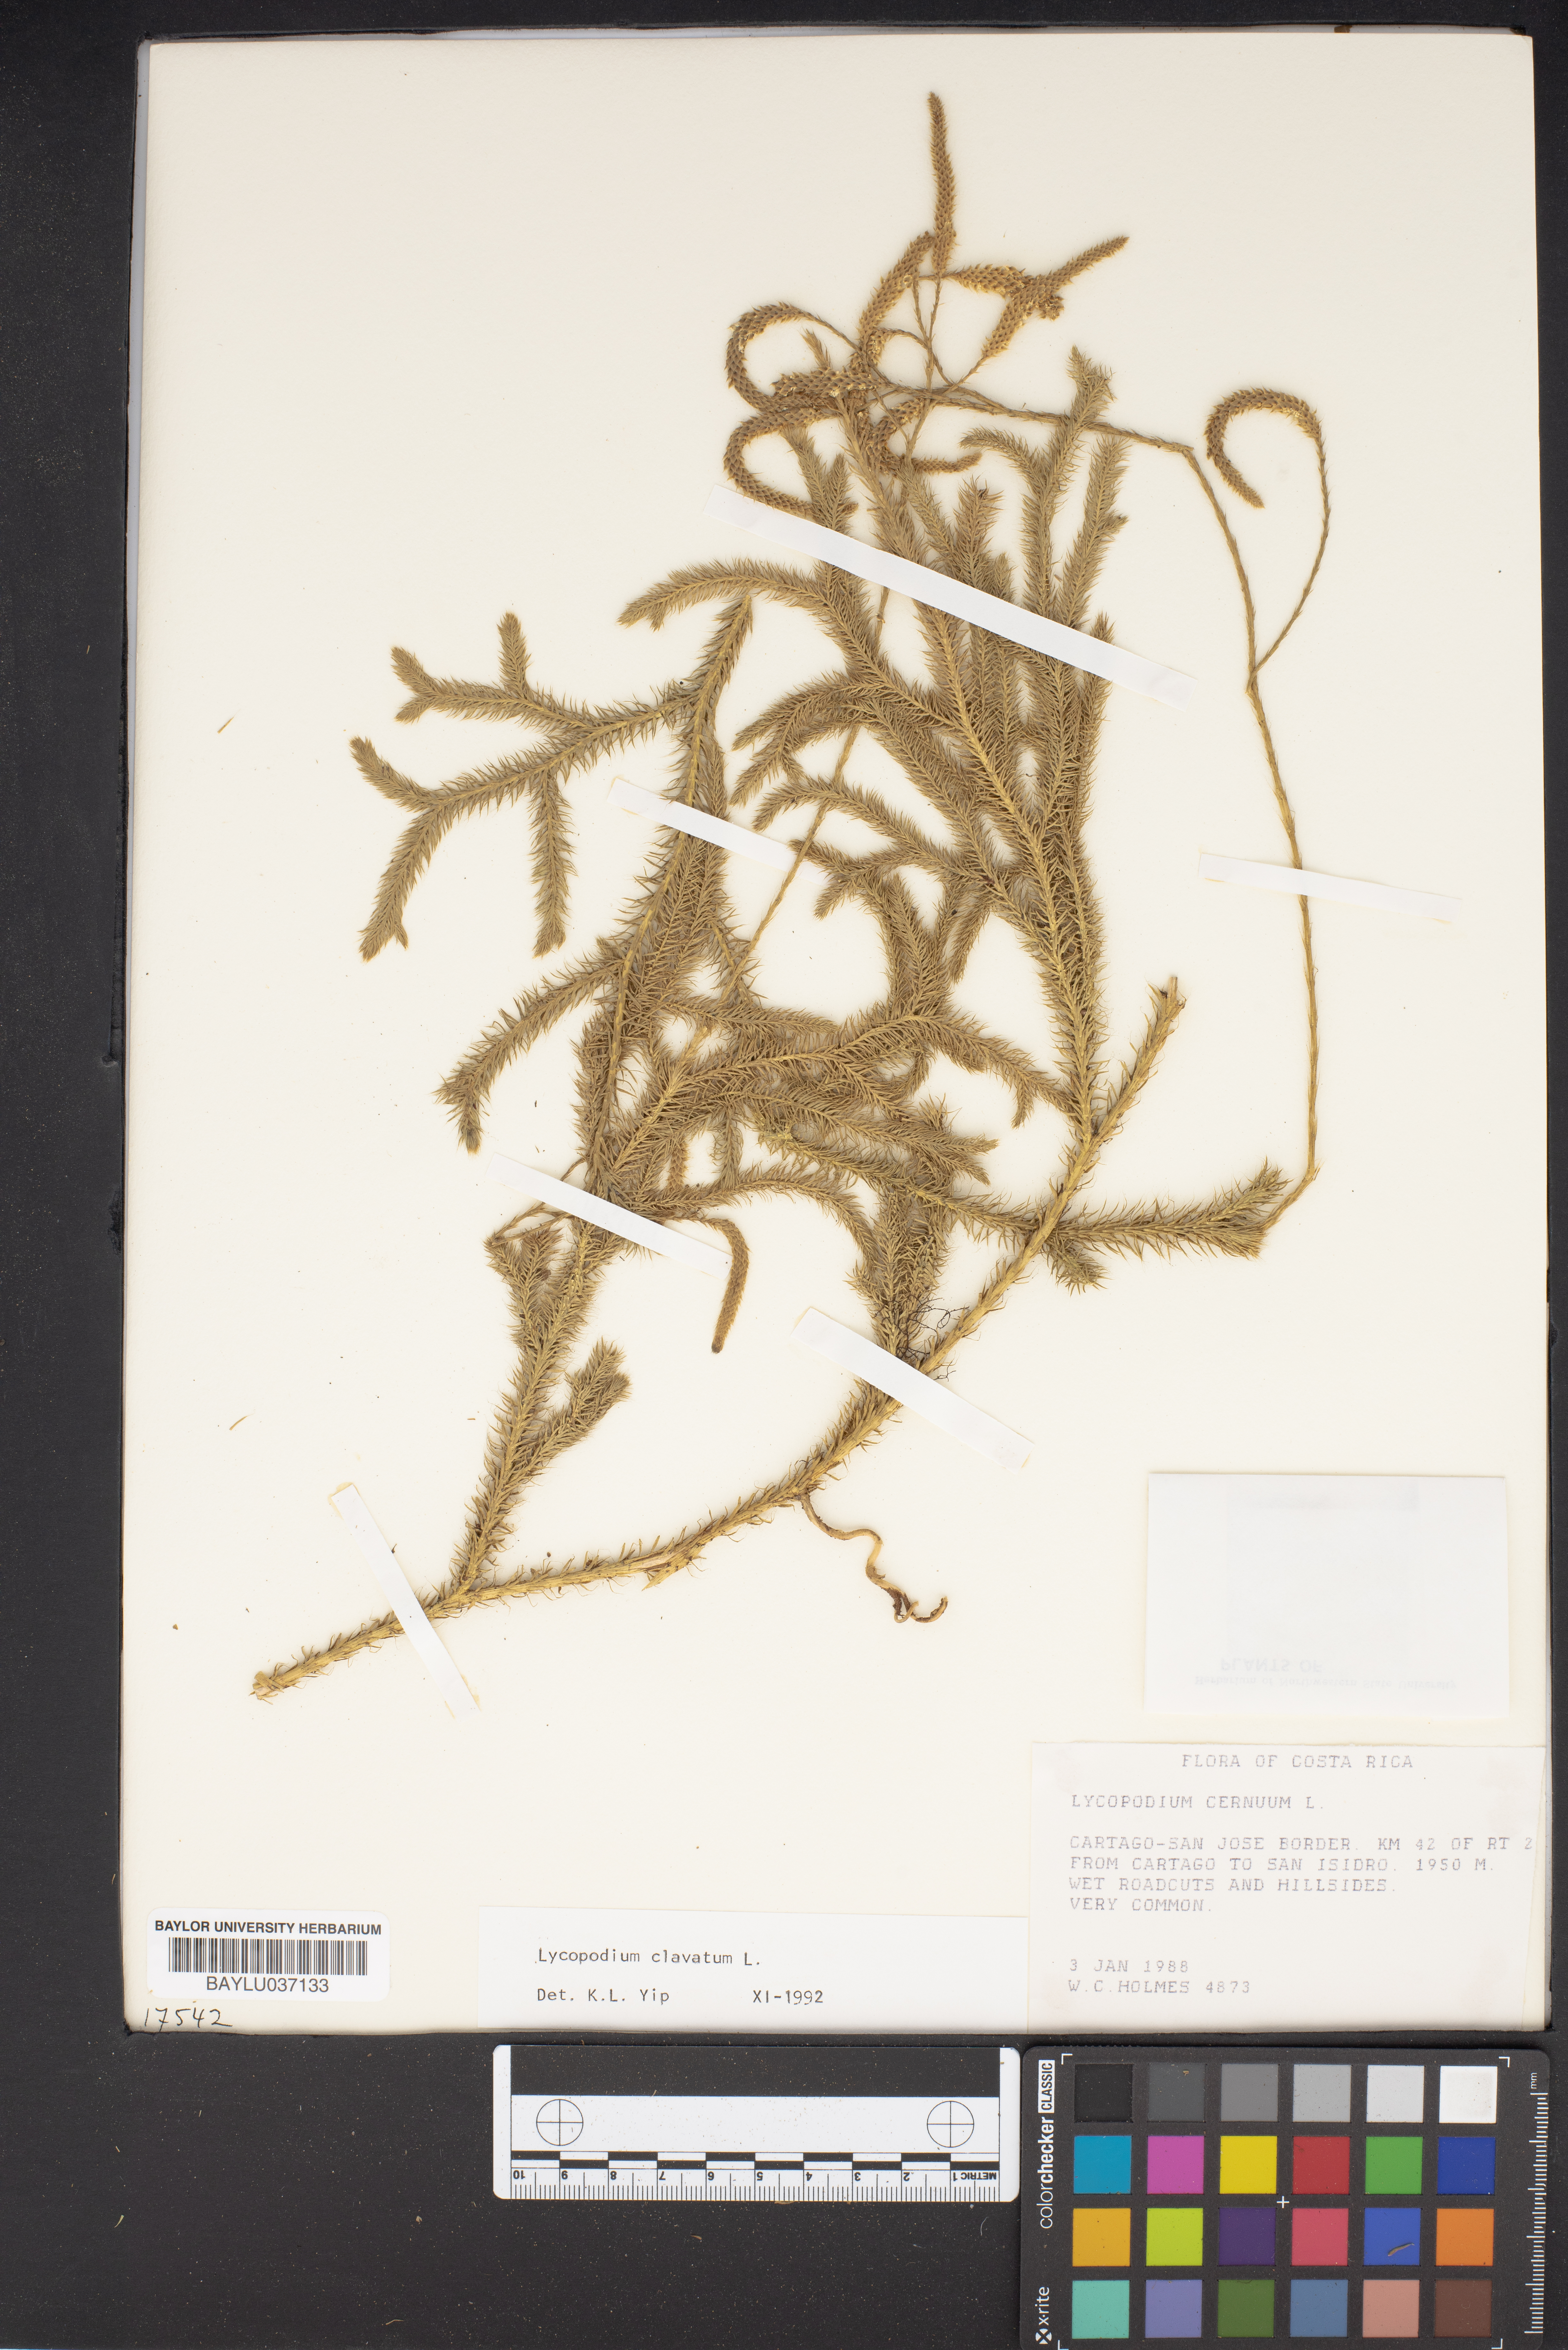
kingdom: Plantae
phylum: Tracheophyta
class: Lycopodiopsida
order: Lycopodiales
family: Lycopodiaceae
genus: Lycopodium
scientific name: Lycopodium clavatum
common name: Stag's-horn clubmoss
